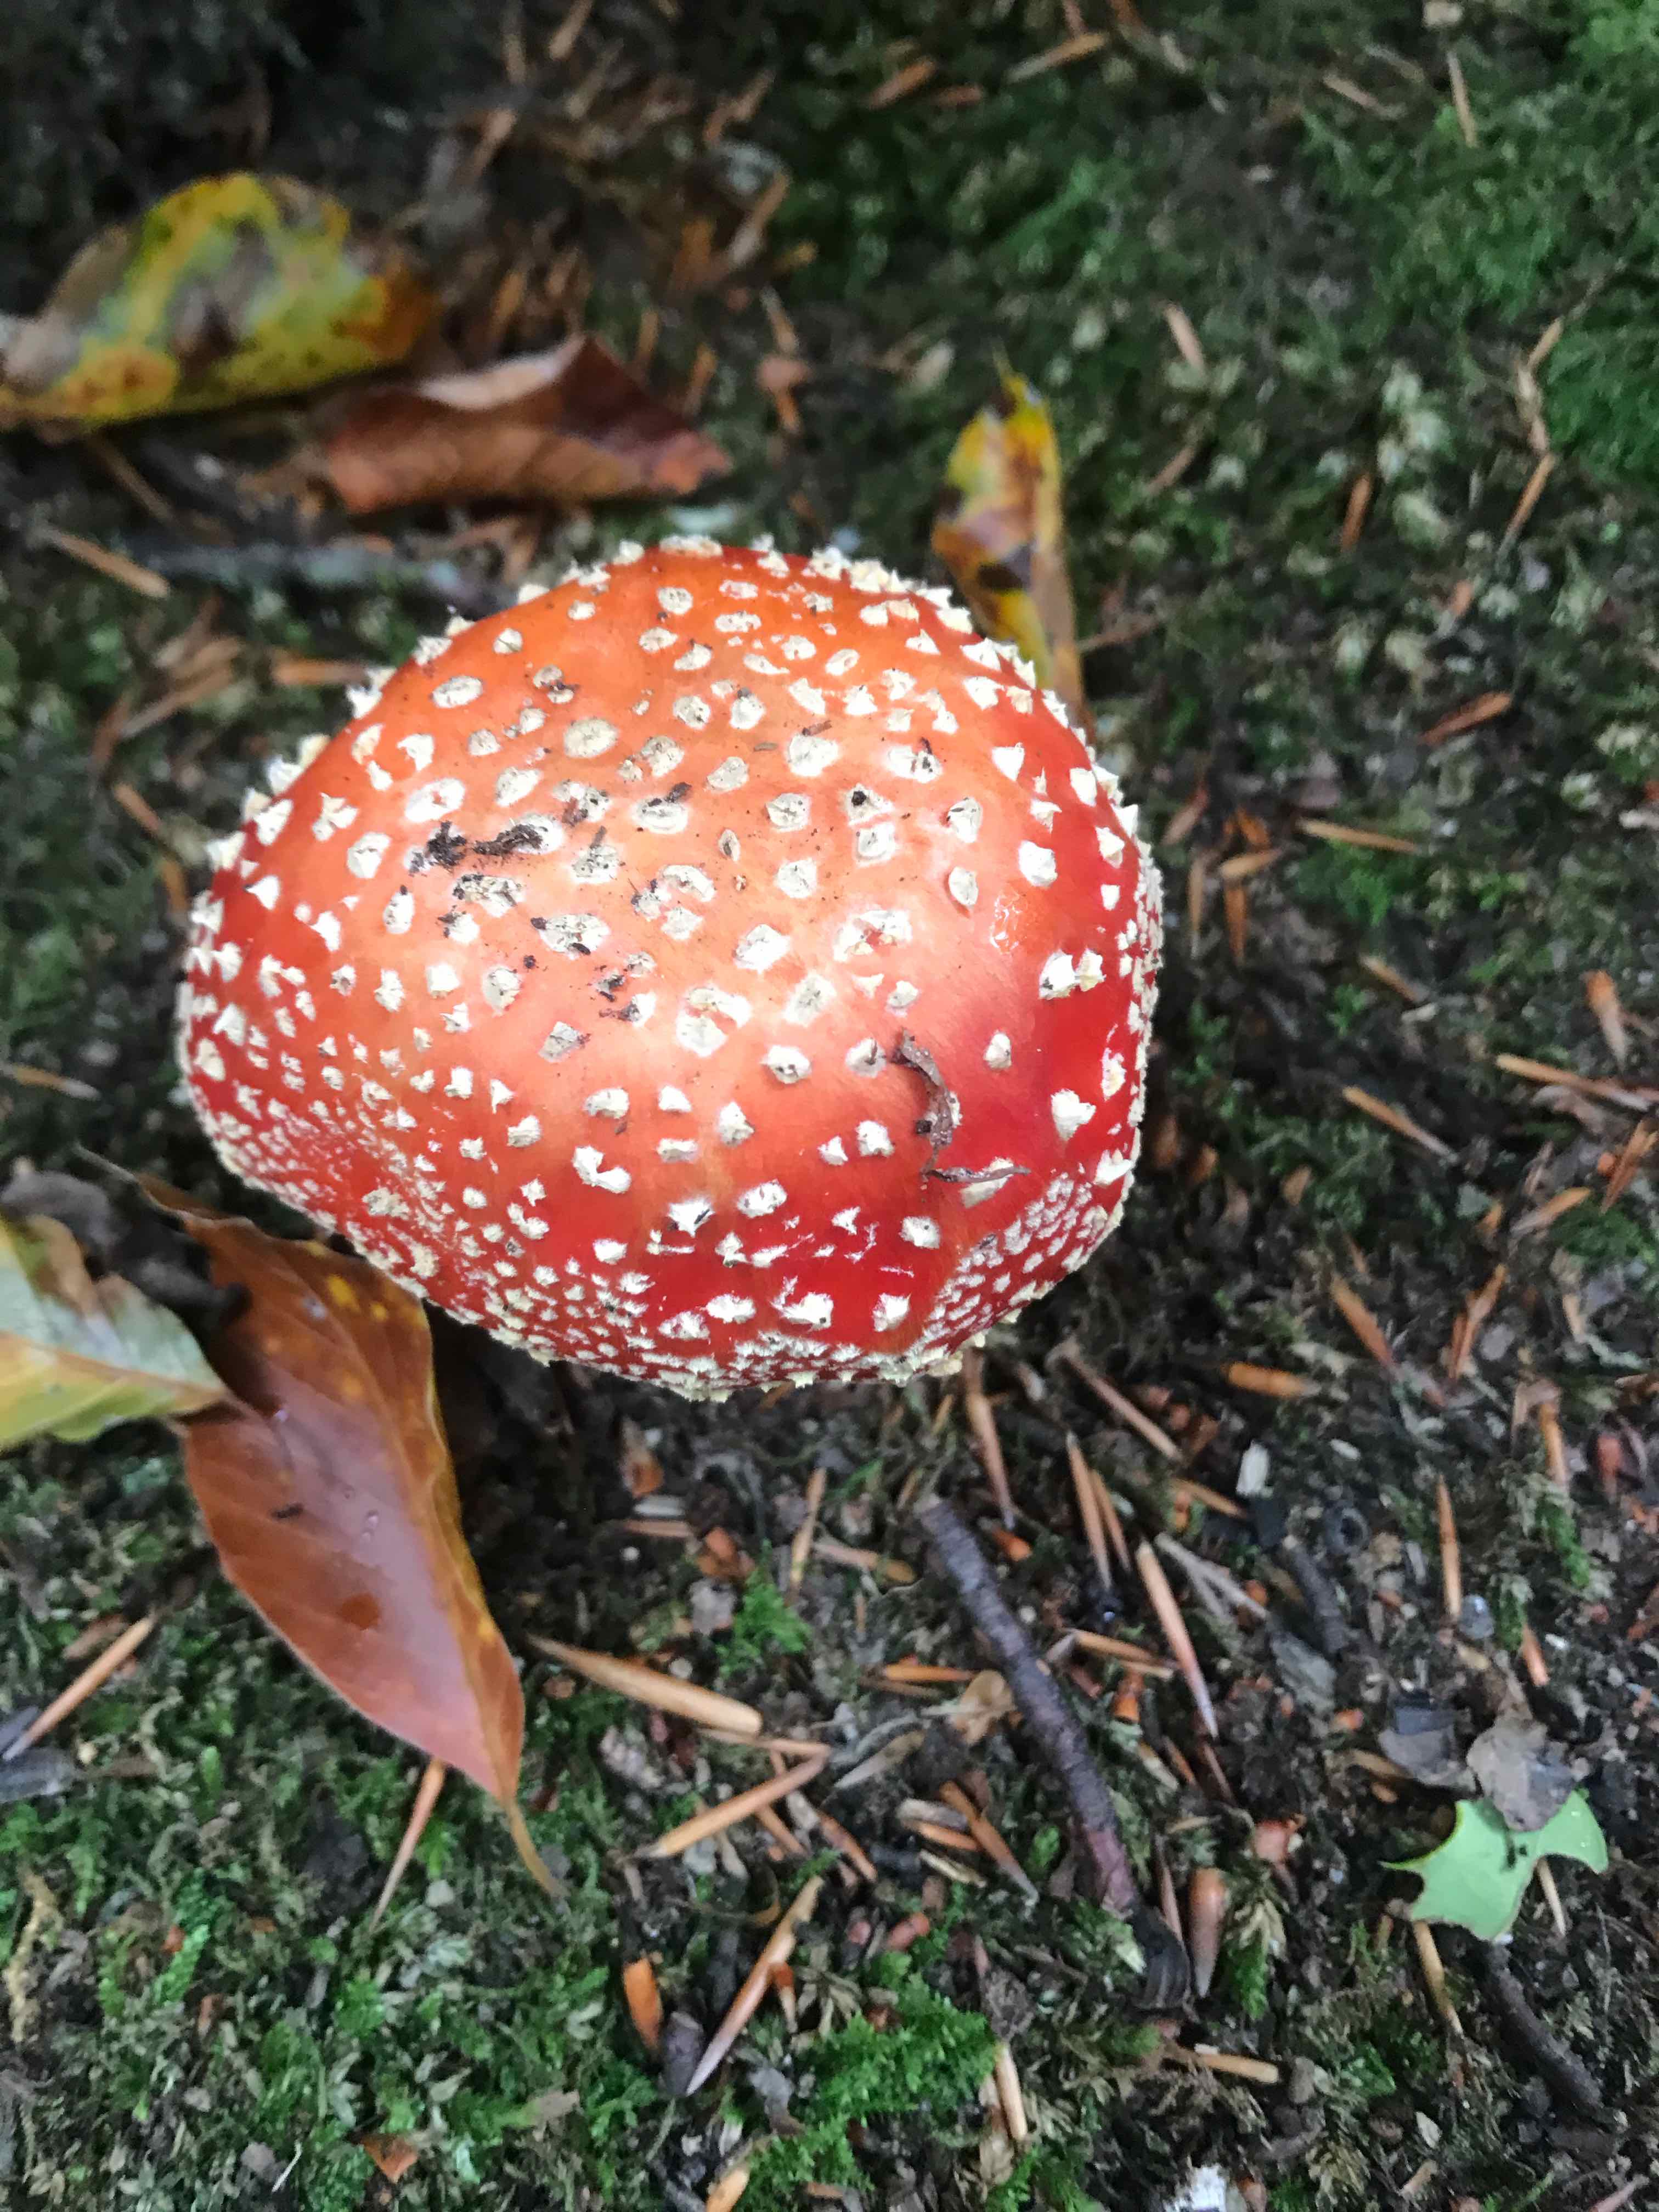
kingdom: Fungi
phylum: Basidiomycota
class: Agaricomycetes
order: Agaricales
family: Amanitaceae
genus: Amanita
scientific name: Amanita muscaria
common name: rød fluesvamp
